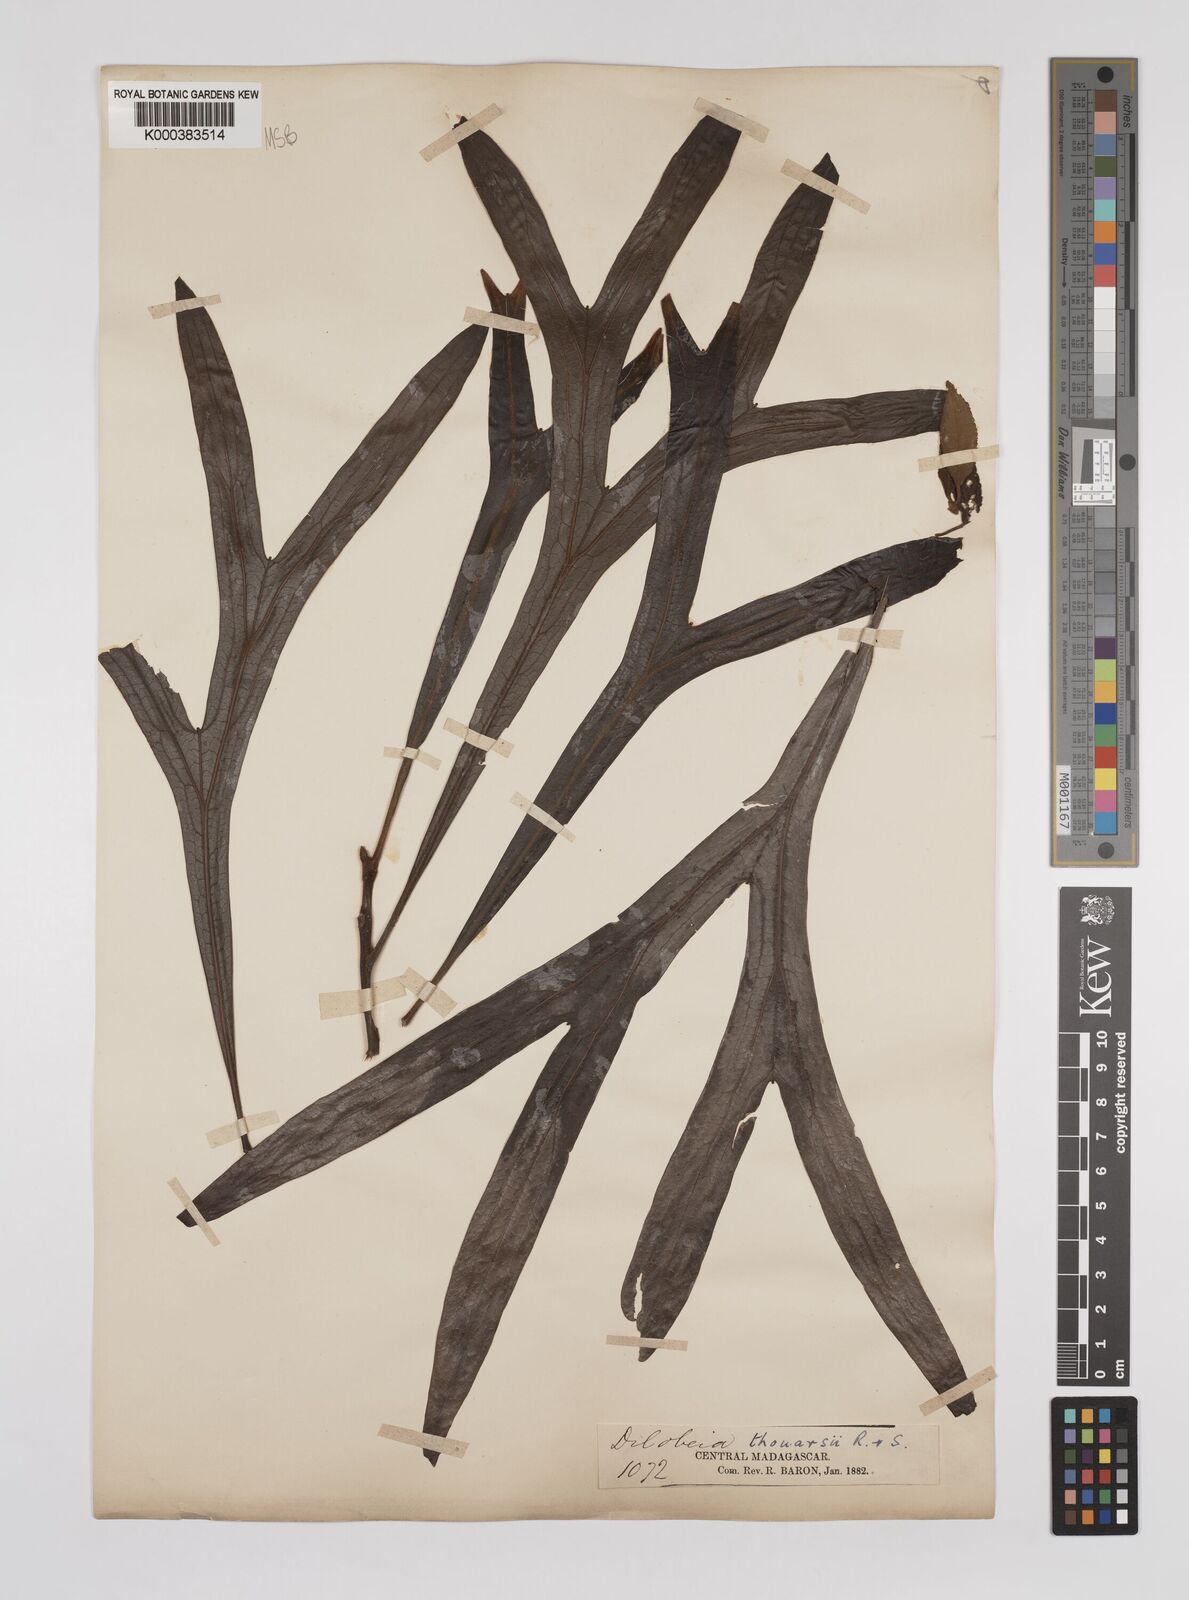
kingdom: Plantae
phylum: Tracheophyta
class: Magnoliopsida
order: Proteales
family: Proteaceae
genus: Dilobeia
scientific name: Dilobeia thouarsii
